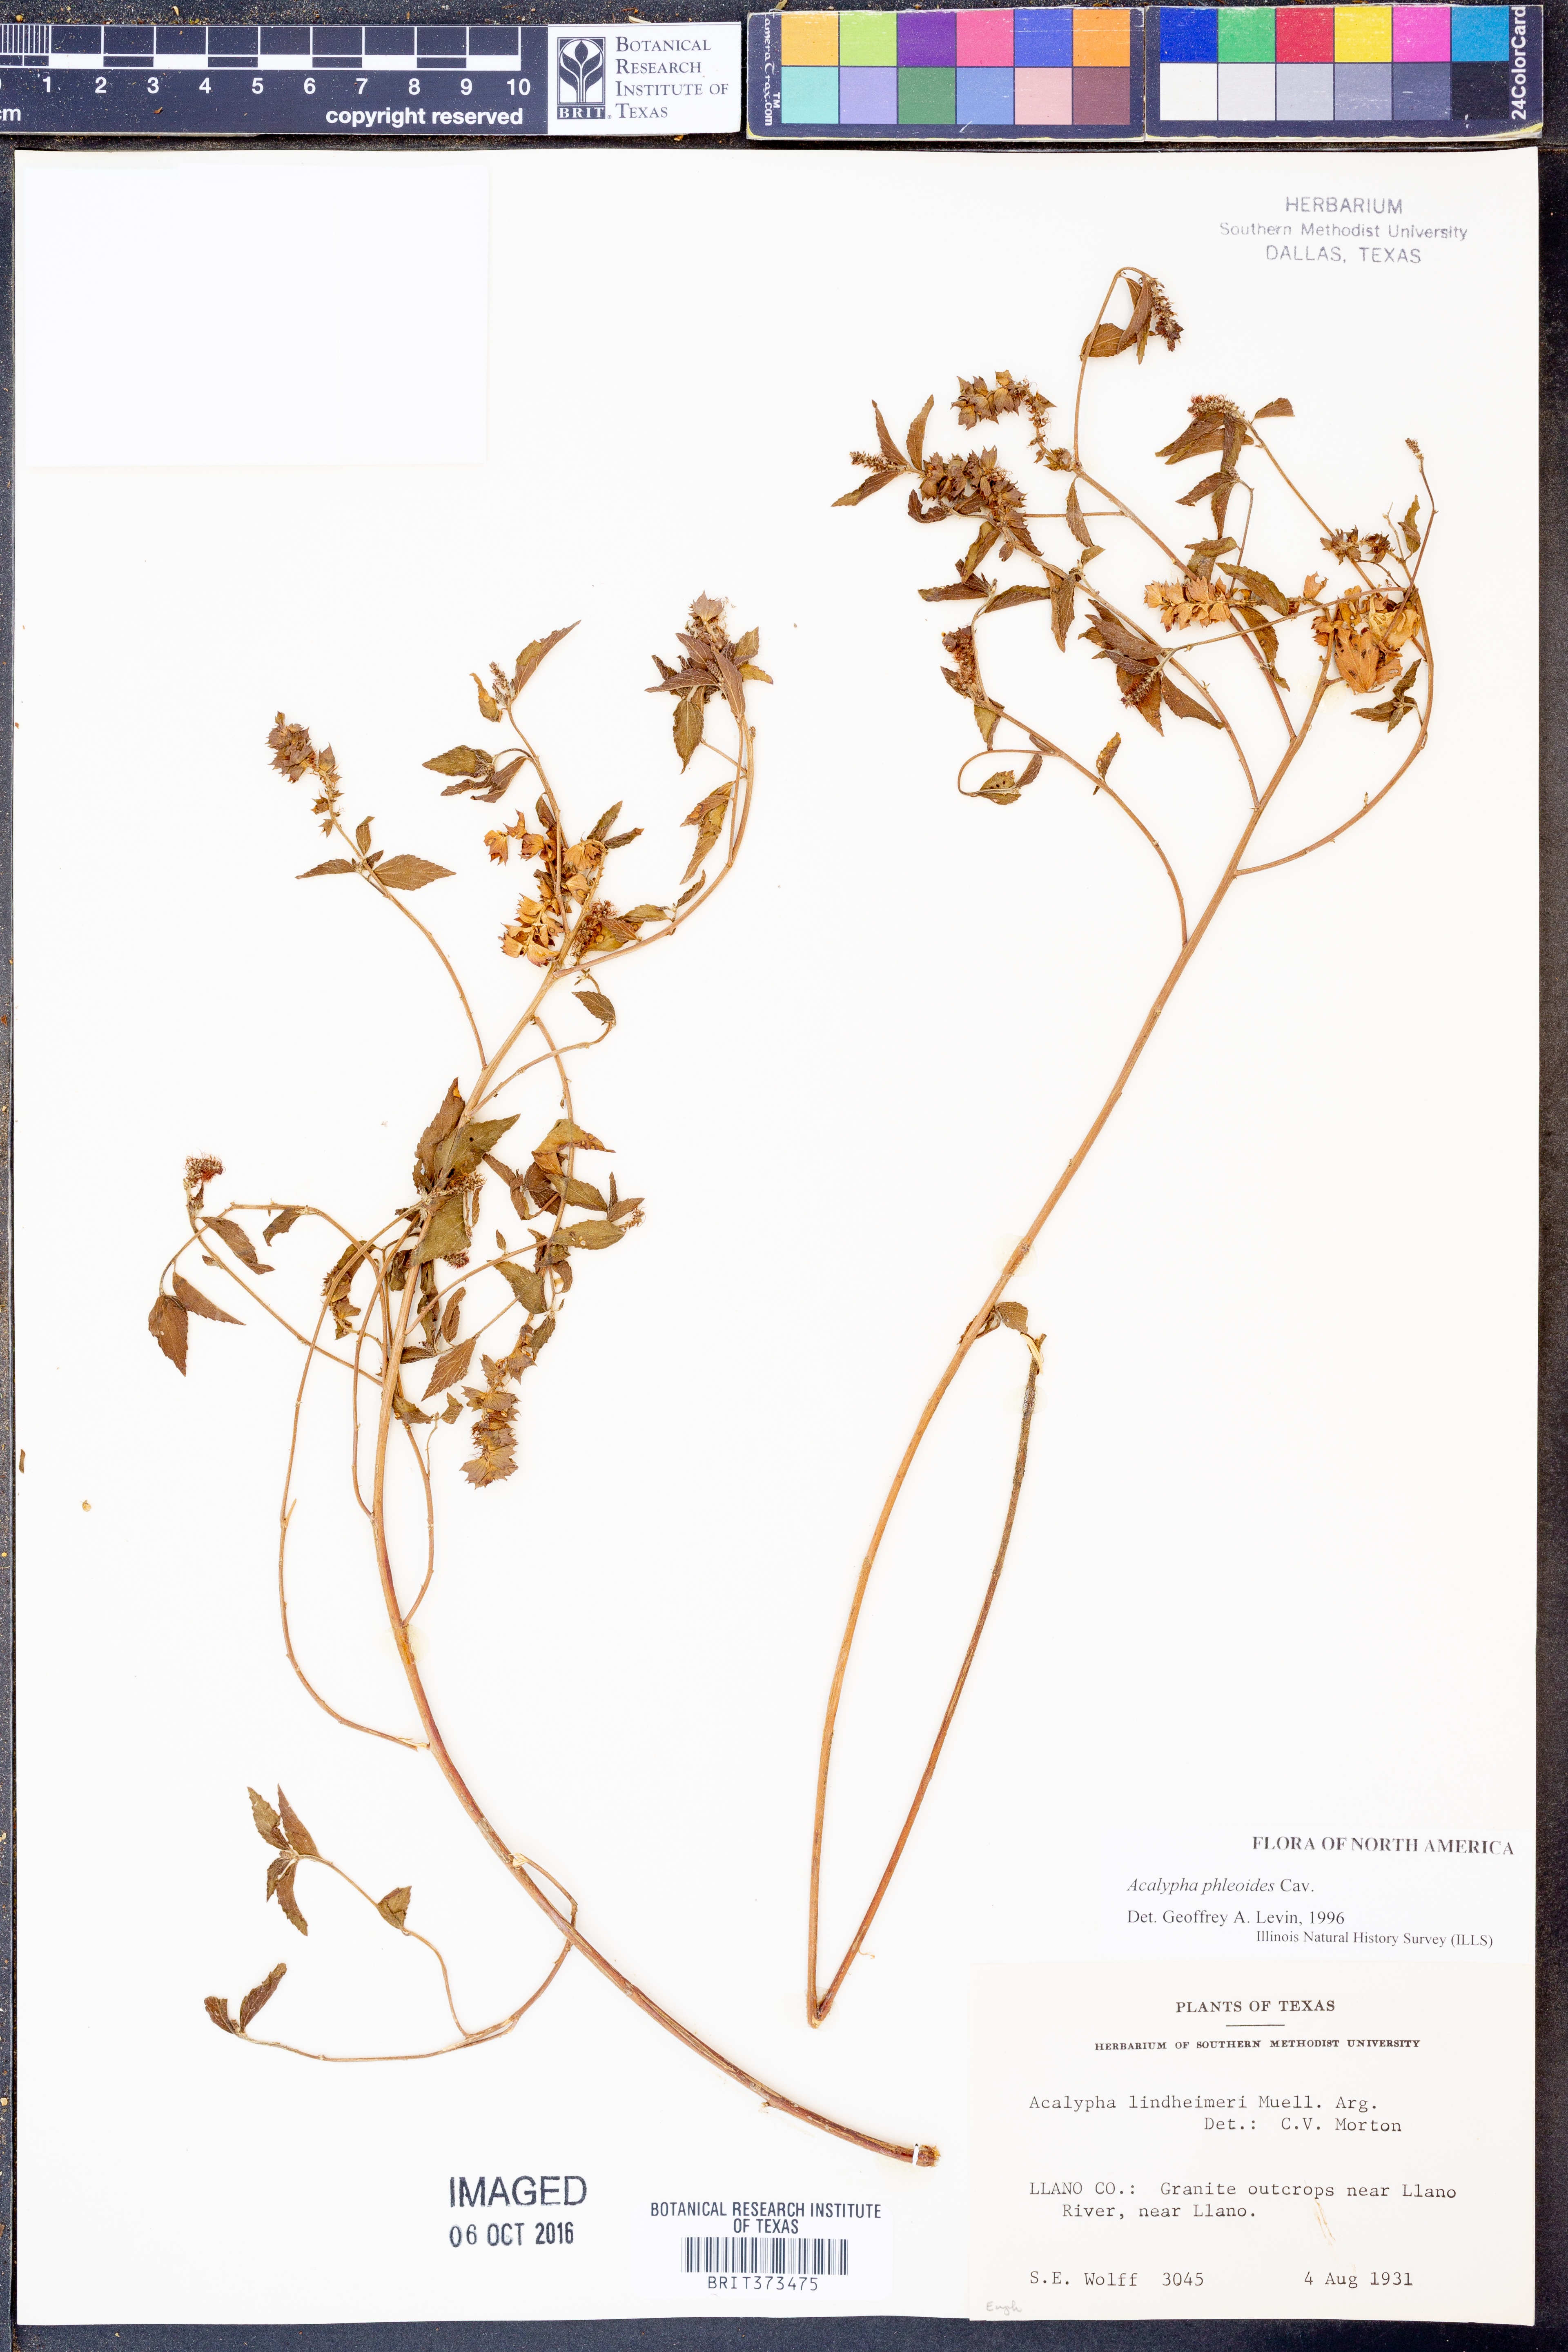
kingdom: Plantae
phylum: Tracheophyta
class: Magnoliopsida
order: Malpighiales
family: Euphorbiaceae
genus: Acalypha
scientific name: Acalypha phleoides
